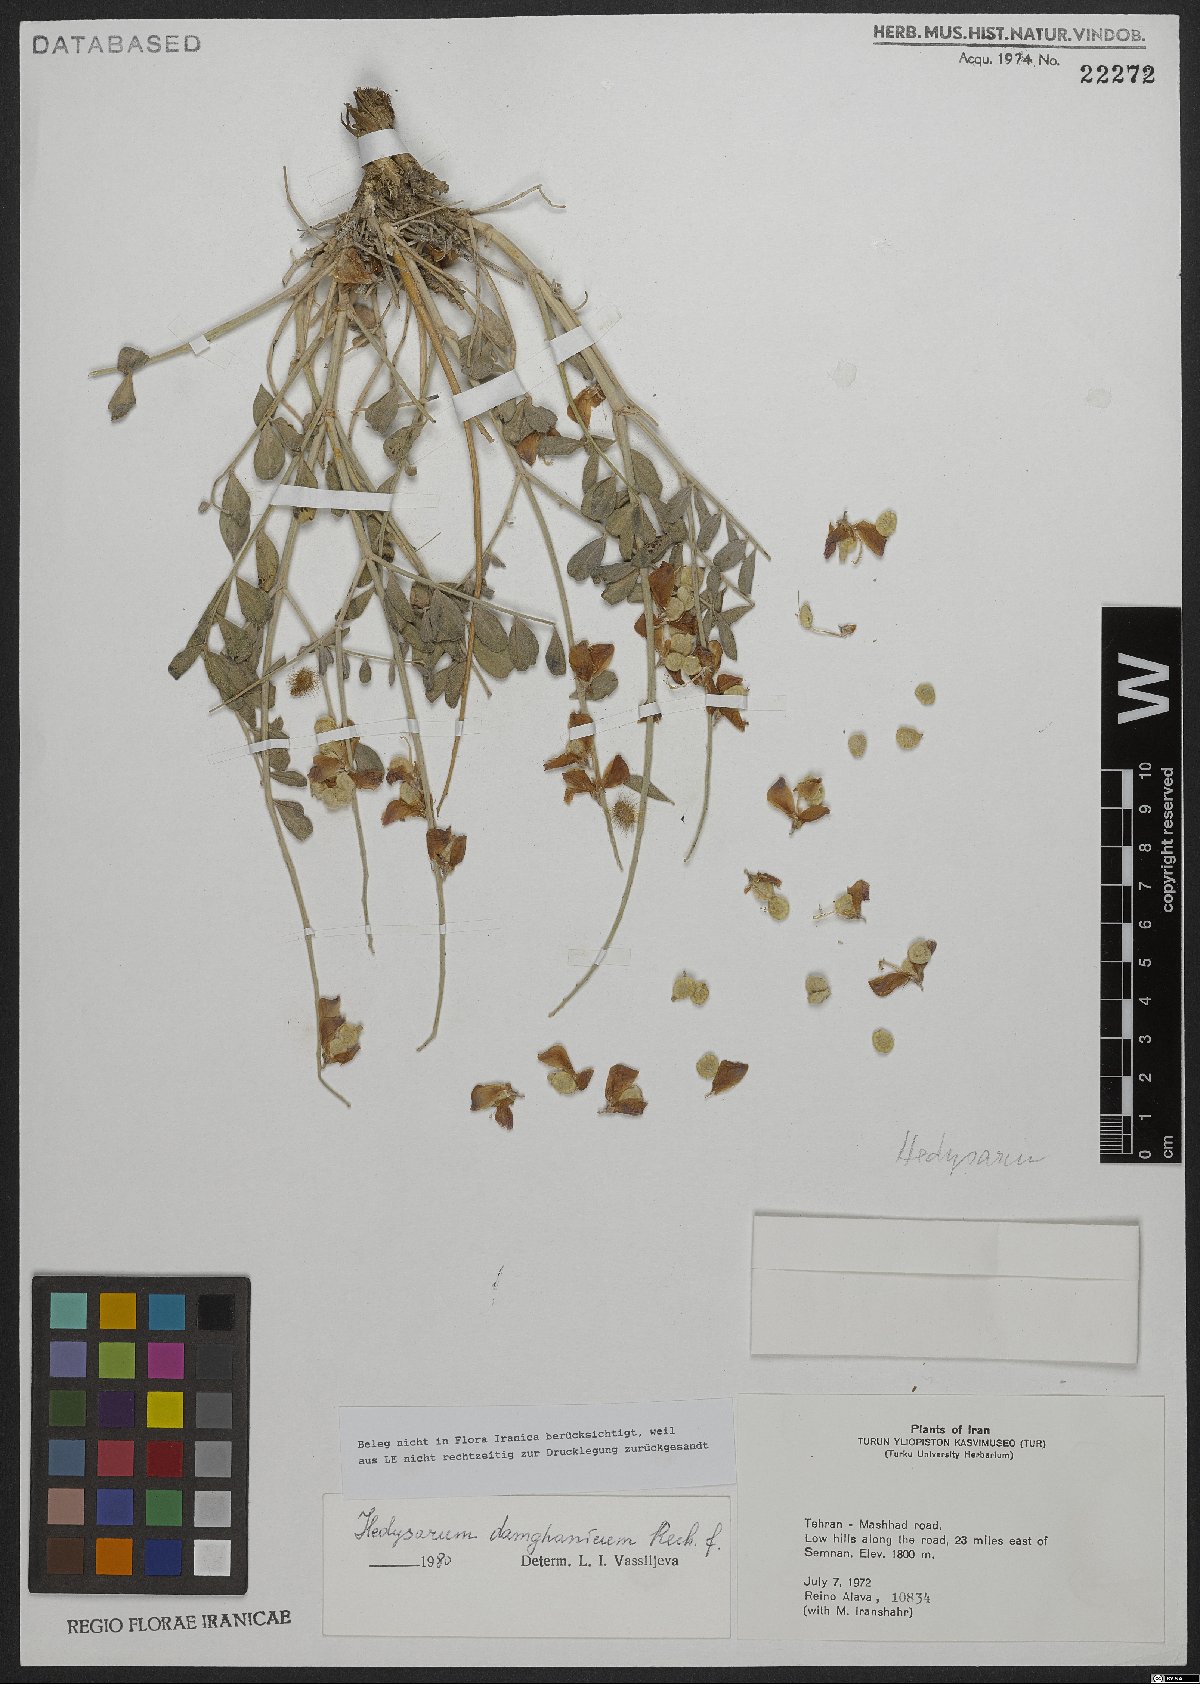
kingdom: Plantae
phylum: Tracheophyta
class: Magnoliopsida
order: Fabales
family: Fabaceae
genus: Hedysarum
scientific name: Hedysarum damghanicum
